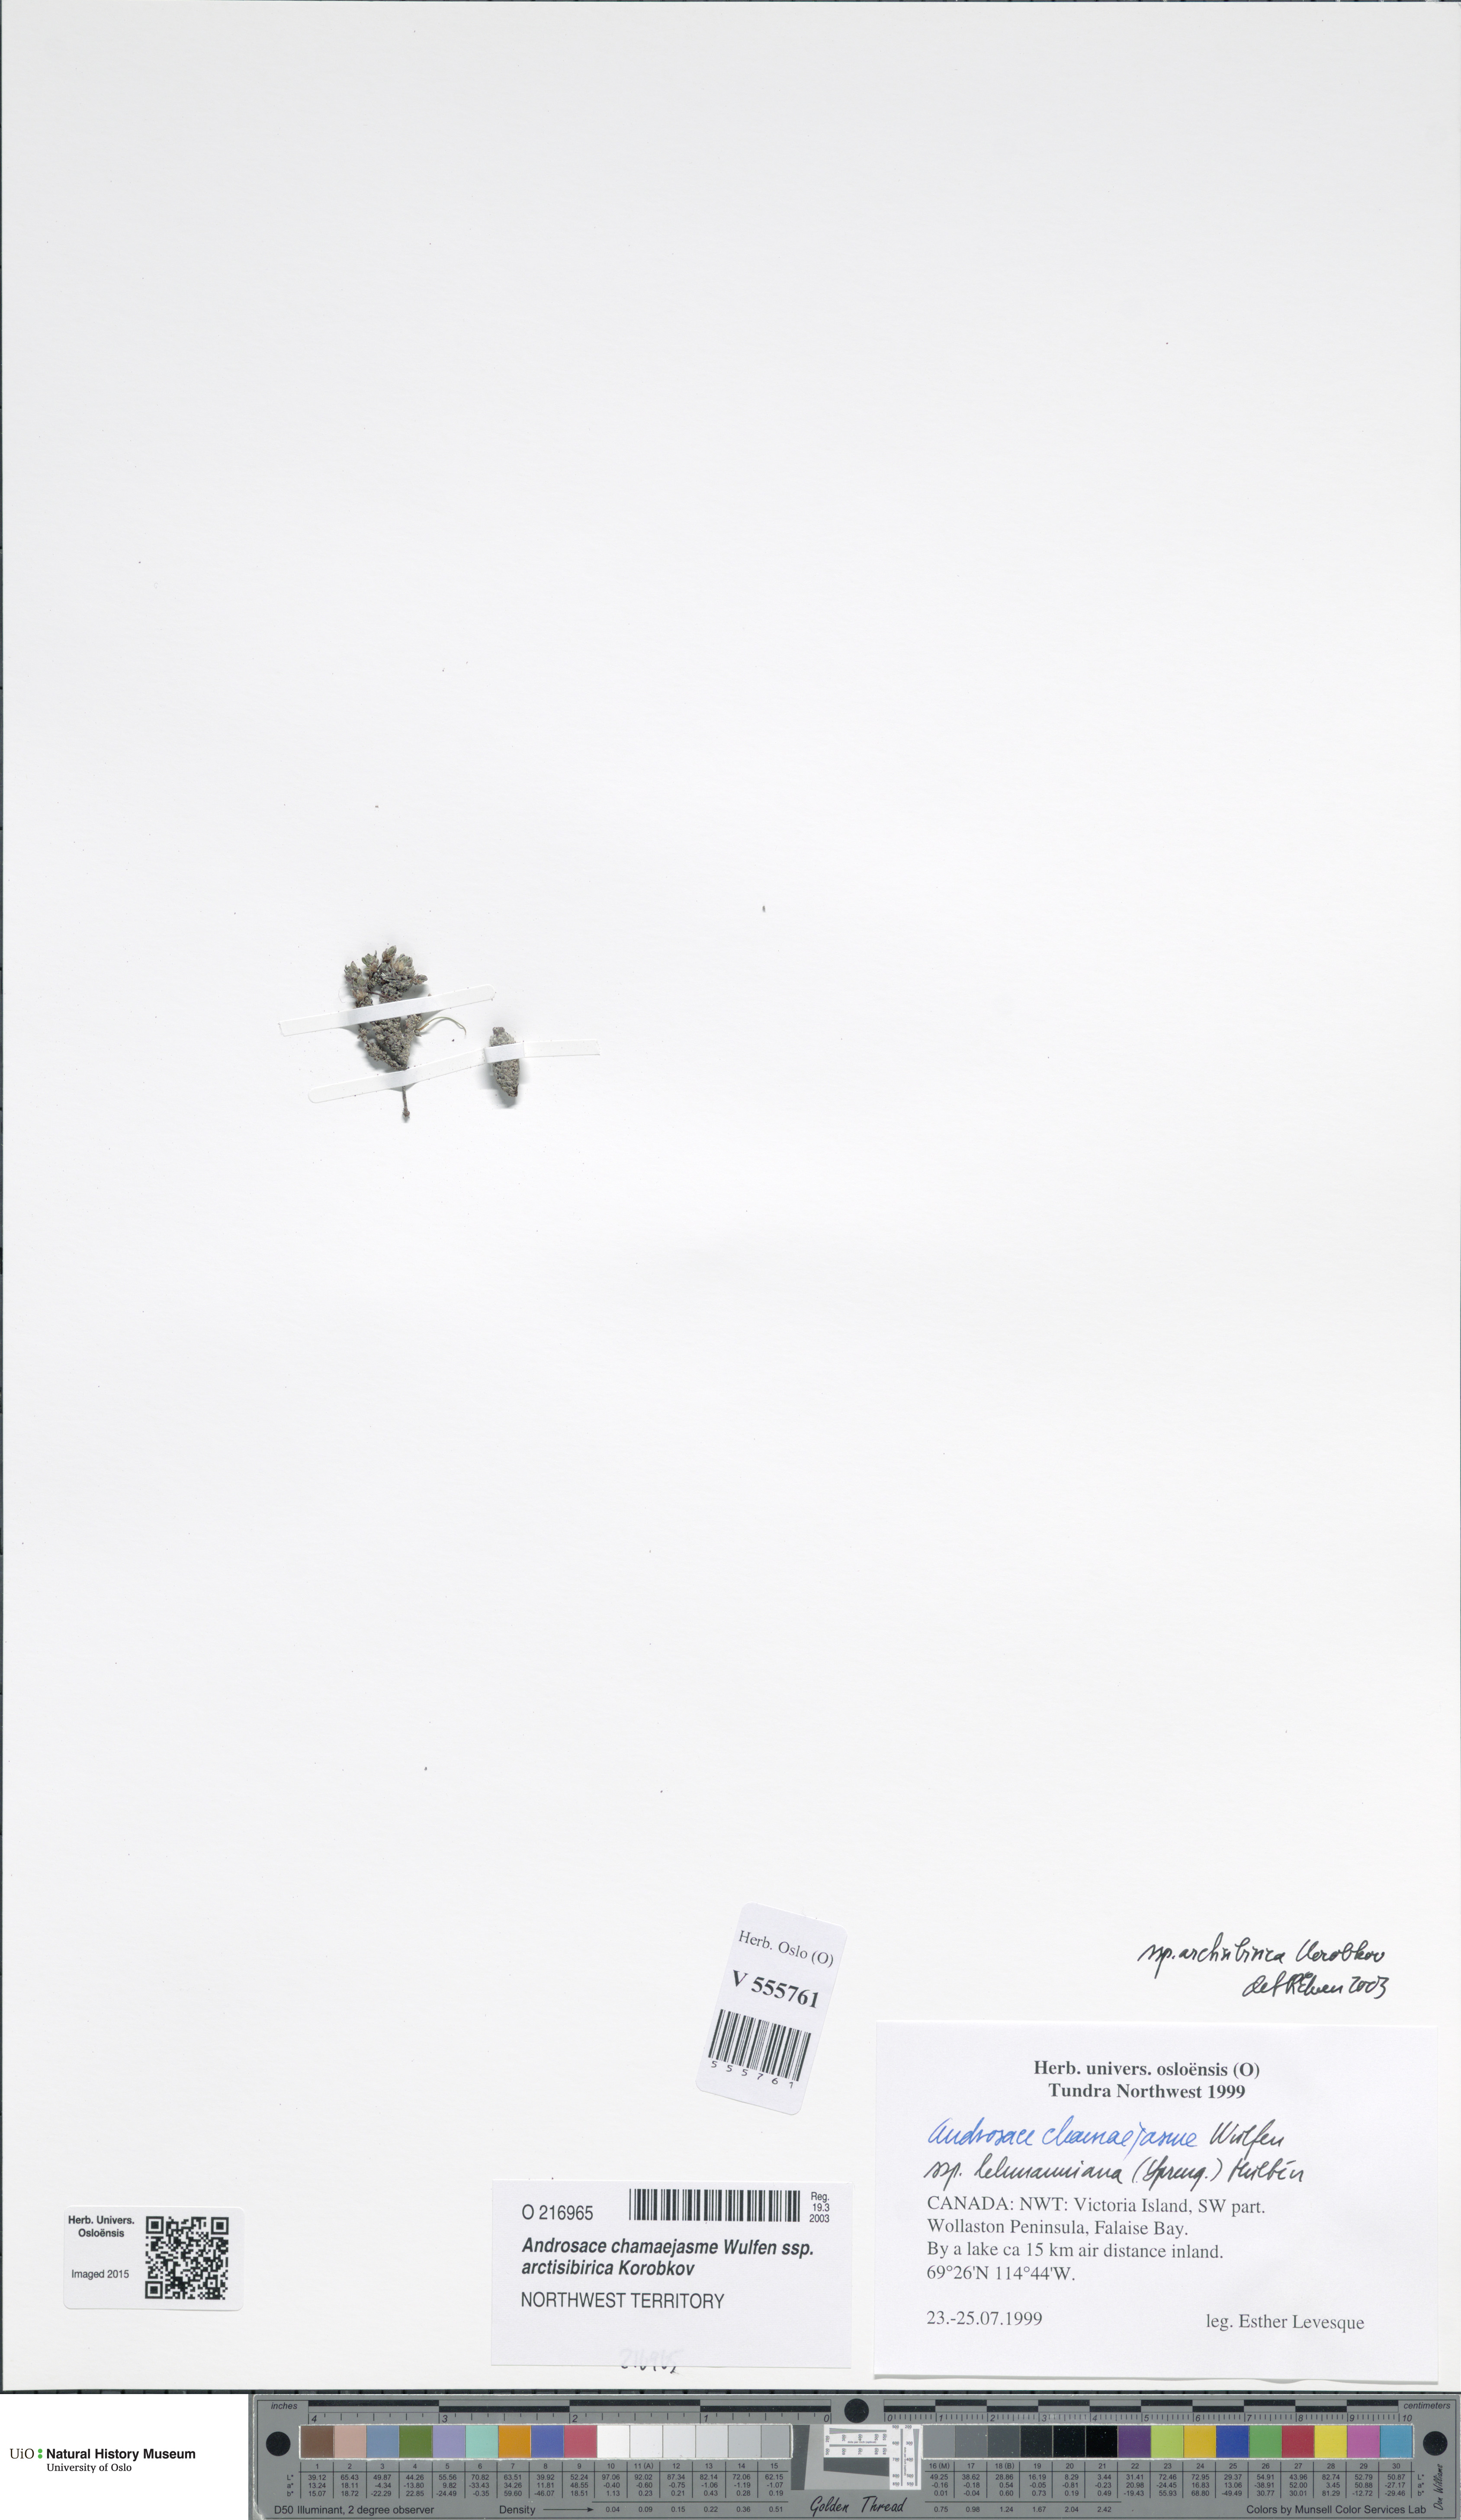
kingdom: Plantae
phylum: Tracheophyta
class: Magnoliopsida
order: Ericales
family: Primulaceae
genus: Androsace
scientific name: Androsace chamaejasme
